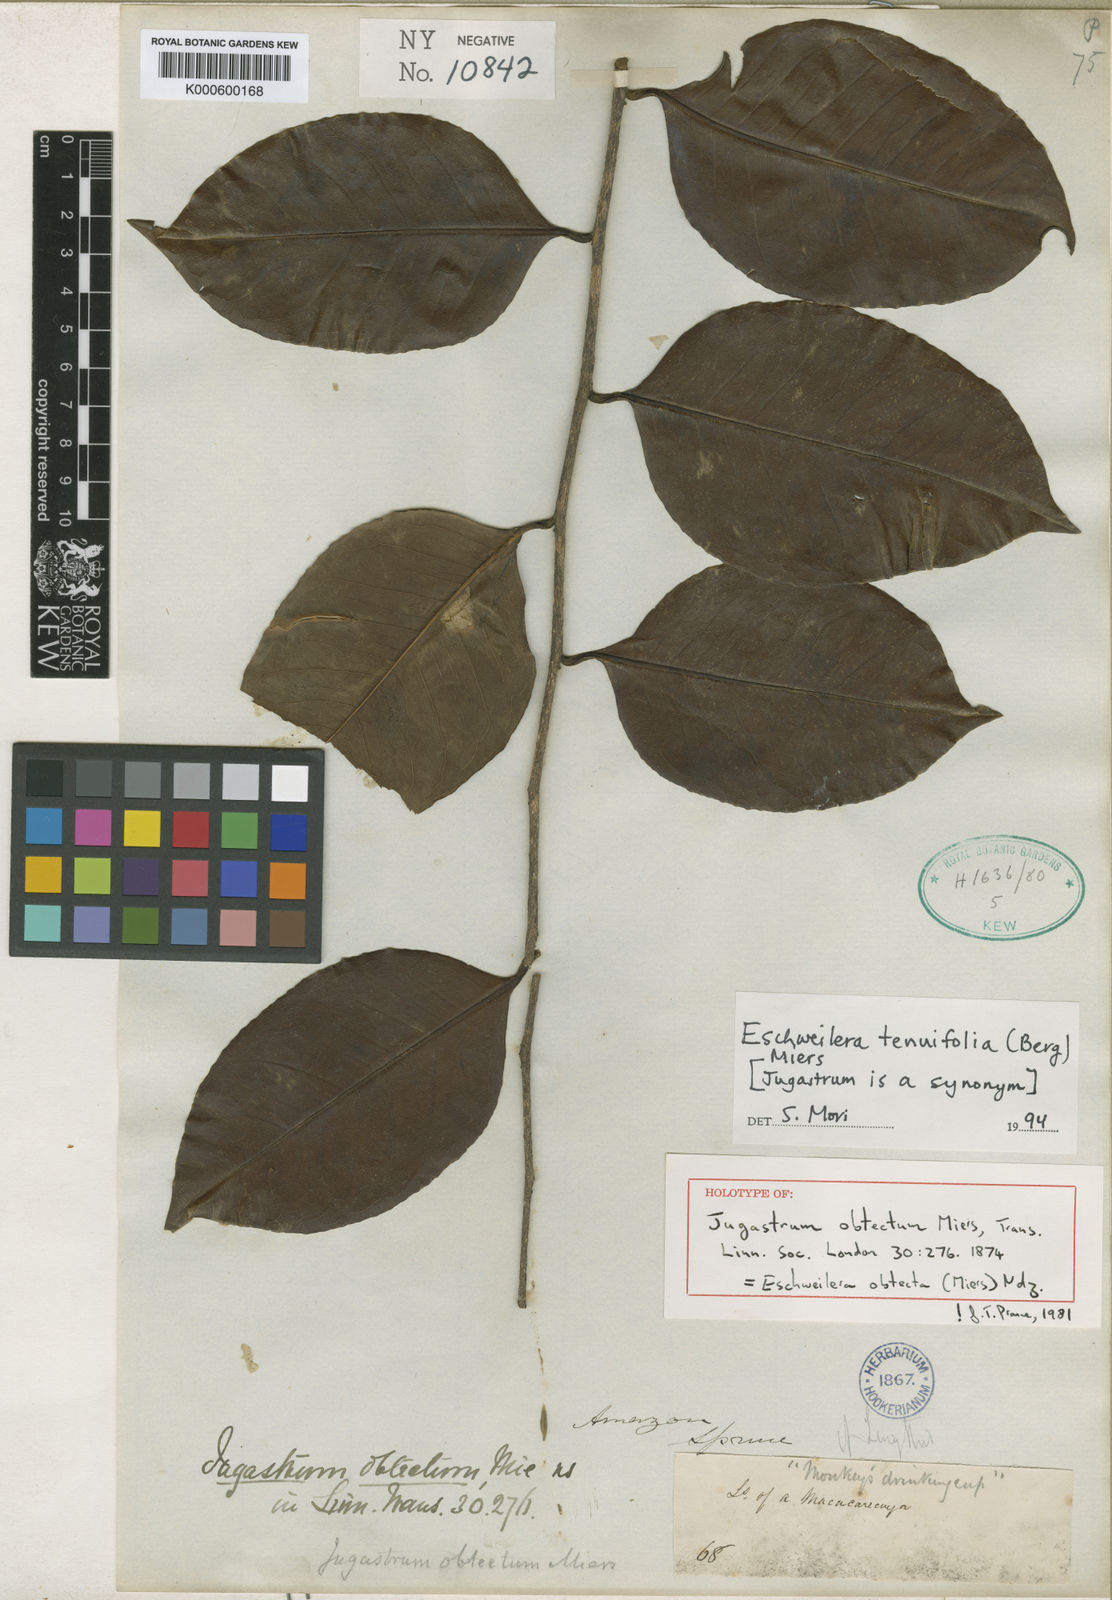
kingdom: Plantae
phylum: Tracheophyta
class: Magnoliopsida
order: Ericales
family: Lecythidaceae
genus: Eschweilera
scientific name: Eschweilera tenuifolia
